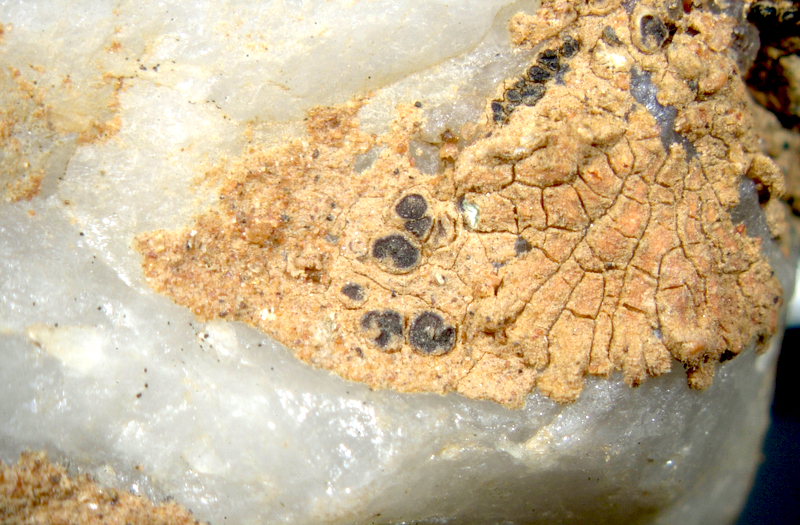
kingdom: Fungi
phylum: Ascomycota
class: Lecanoromycetes
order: Teloschistales
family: Teloschistaceae
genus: Caloplaca
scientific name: Caloplaca
